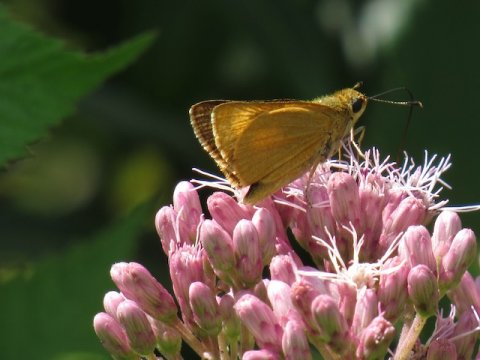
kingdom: Animalia
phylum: Arthropoda
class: Insecta
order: Lepidoptera
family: Hesperiidae
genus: Atrytone
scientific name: Atrytone delaware
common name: Delaware Skipper
